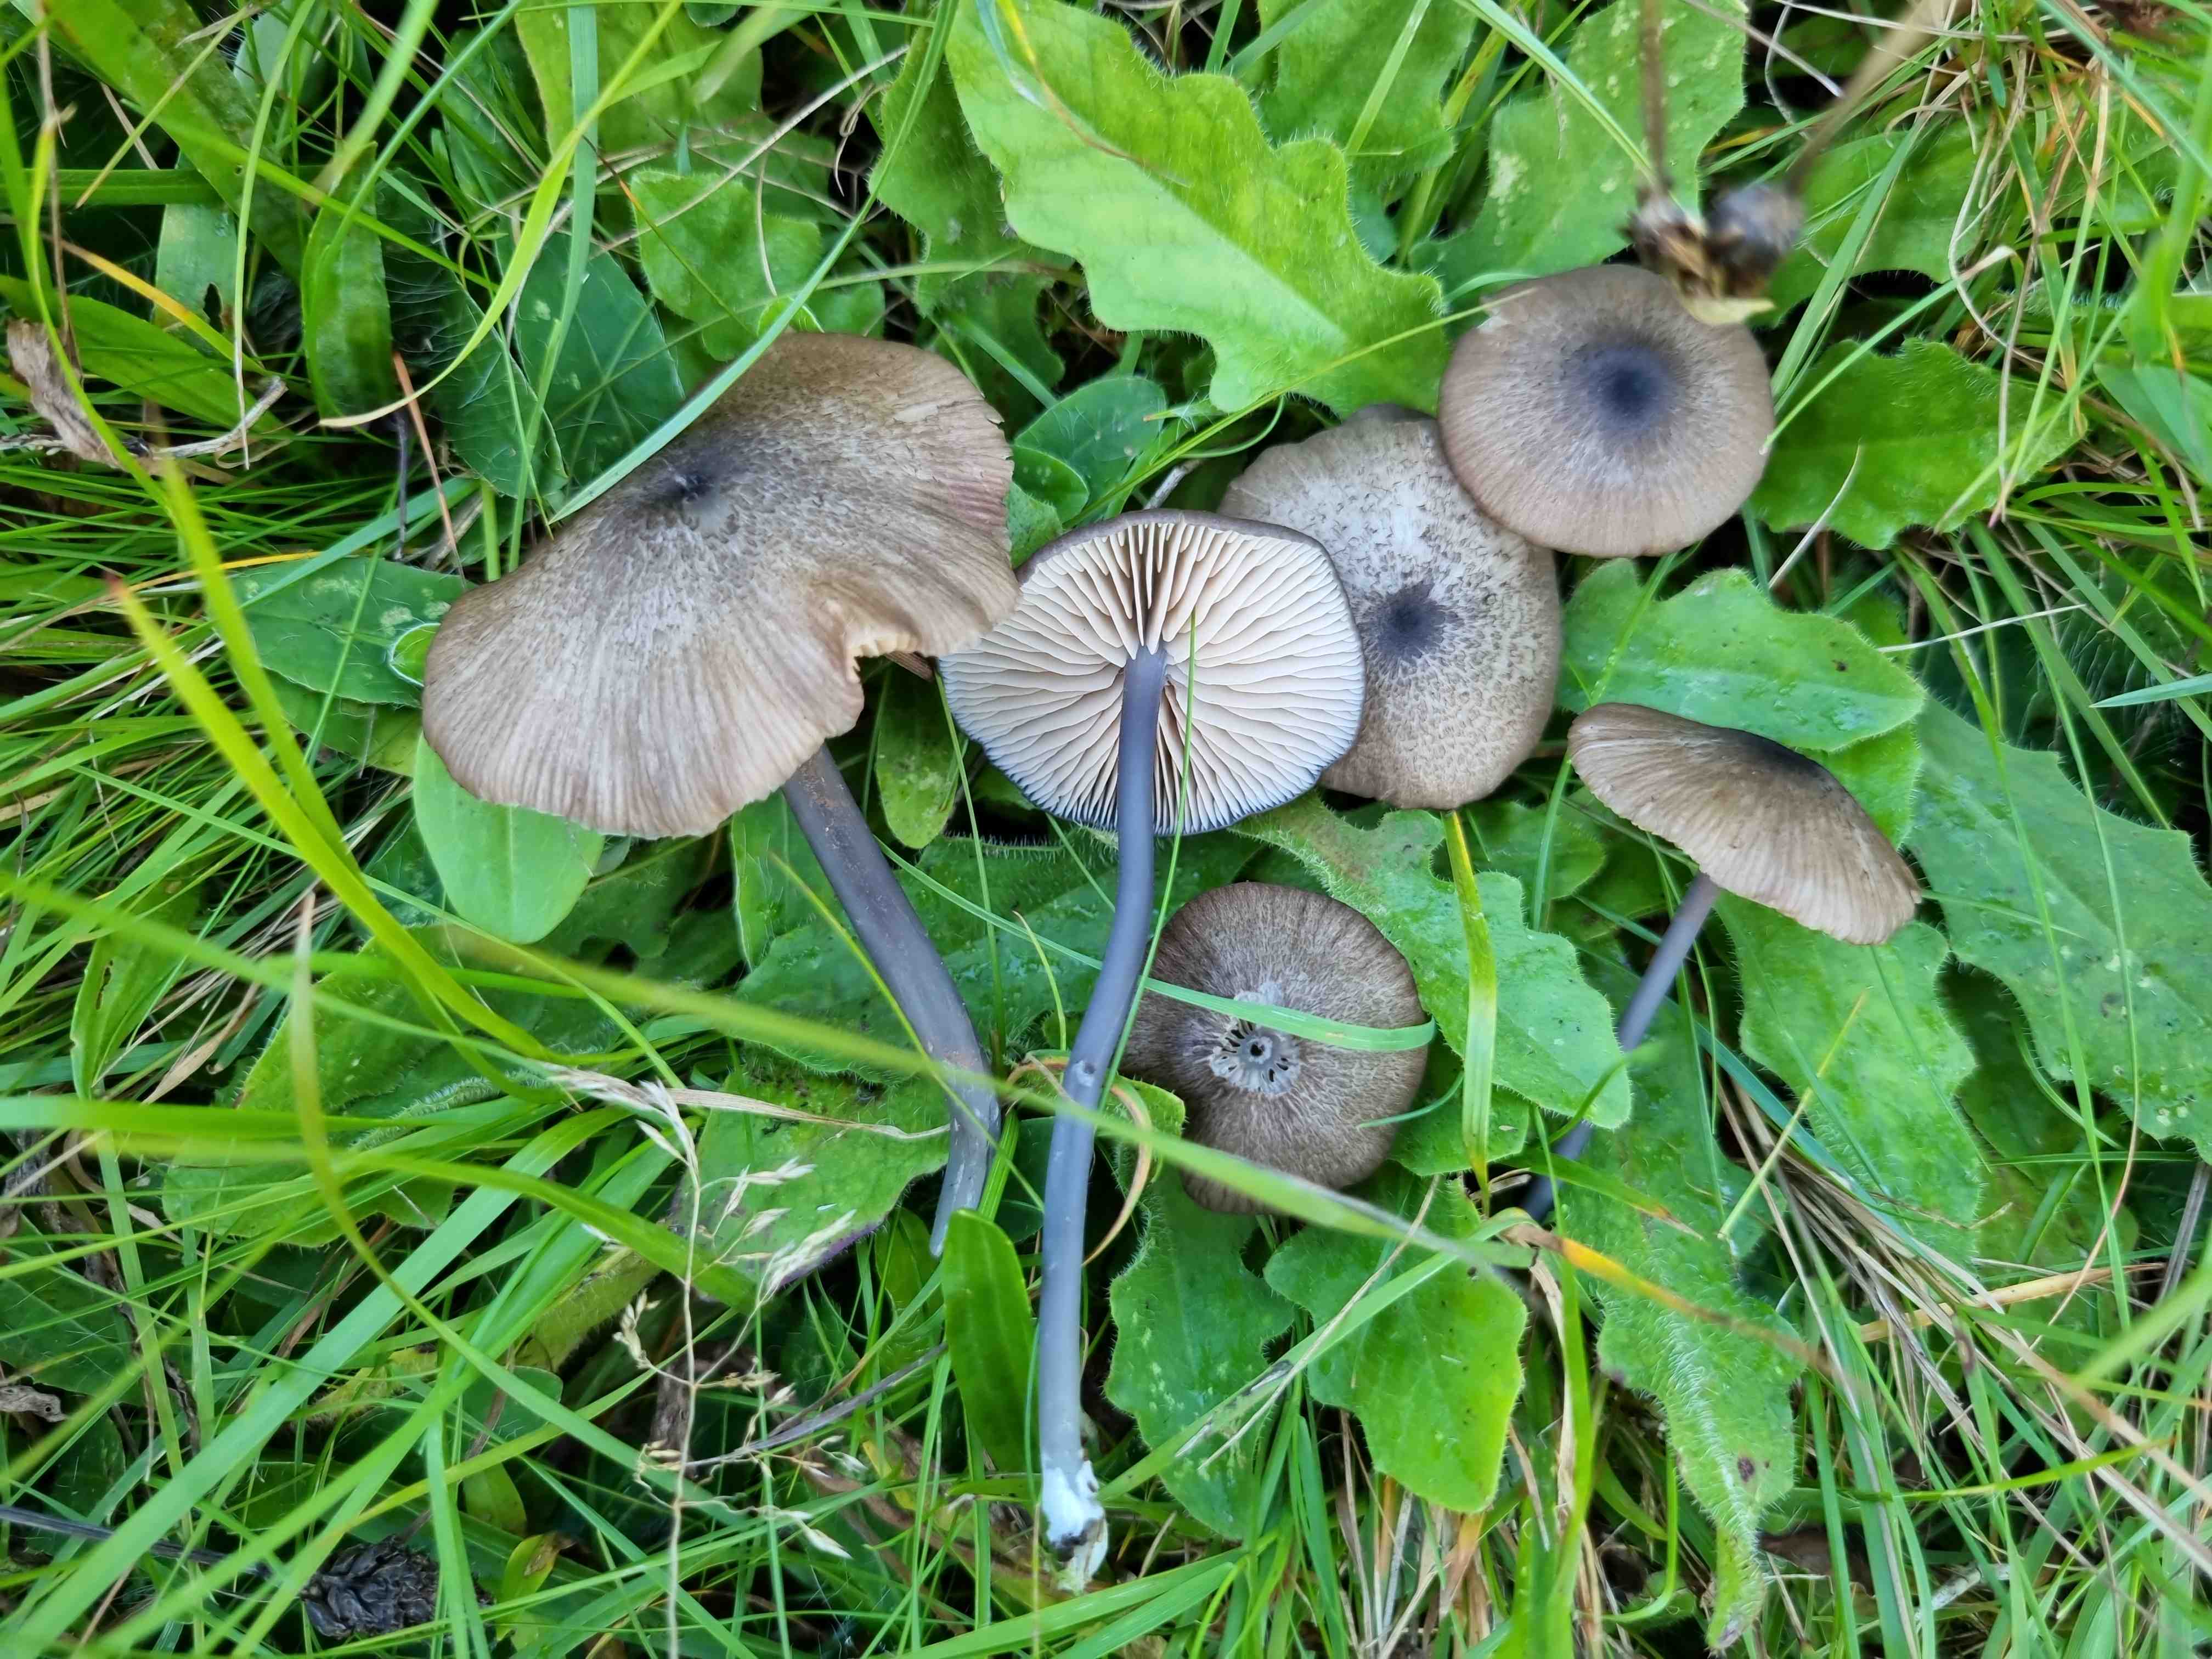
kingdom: Fungi
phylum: Basidiomycota
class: Agaricomycetes
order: Agaricales
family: Entolomataceae
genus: Entoloma
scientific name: Entoloma
